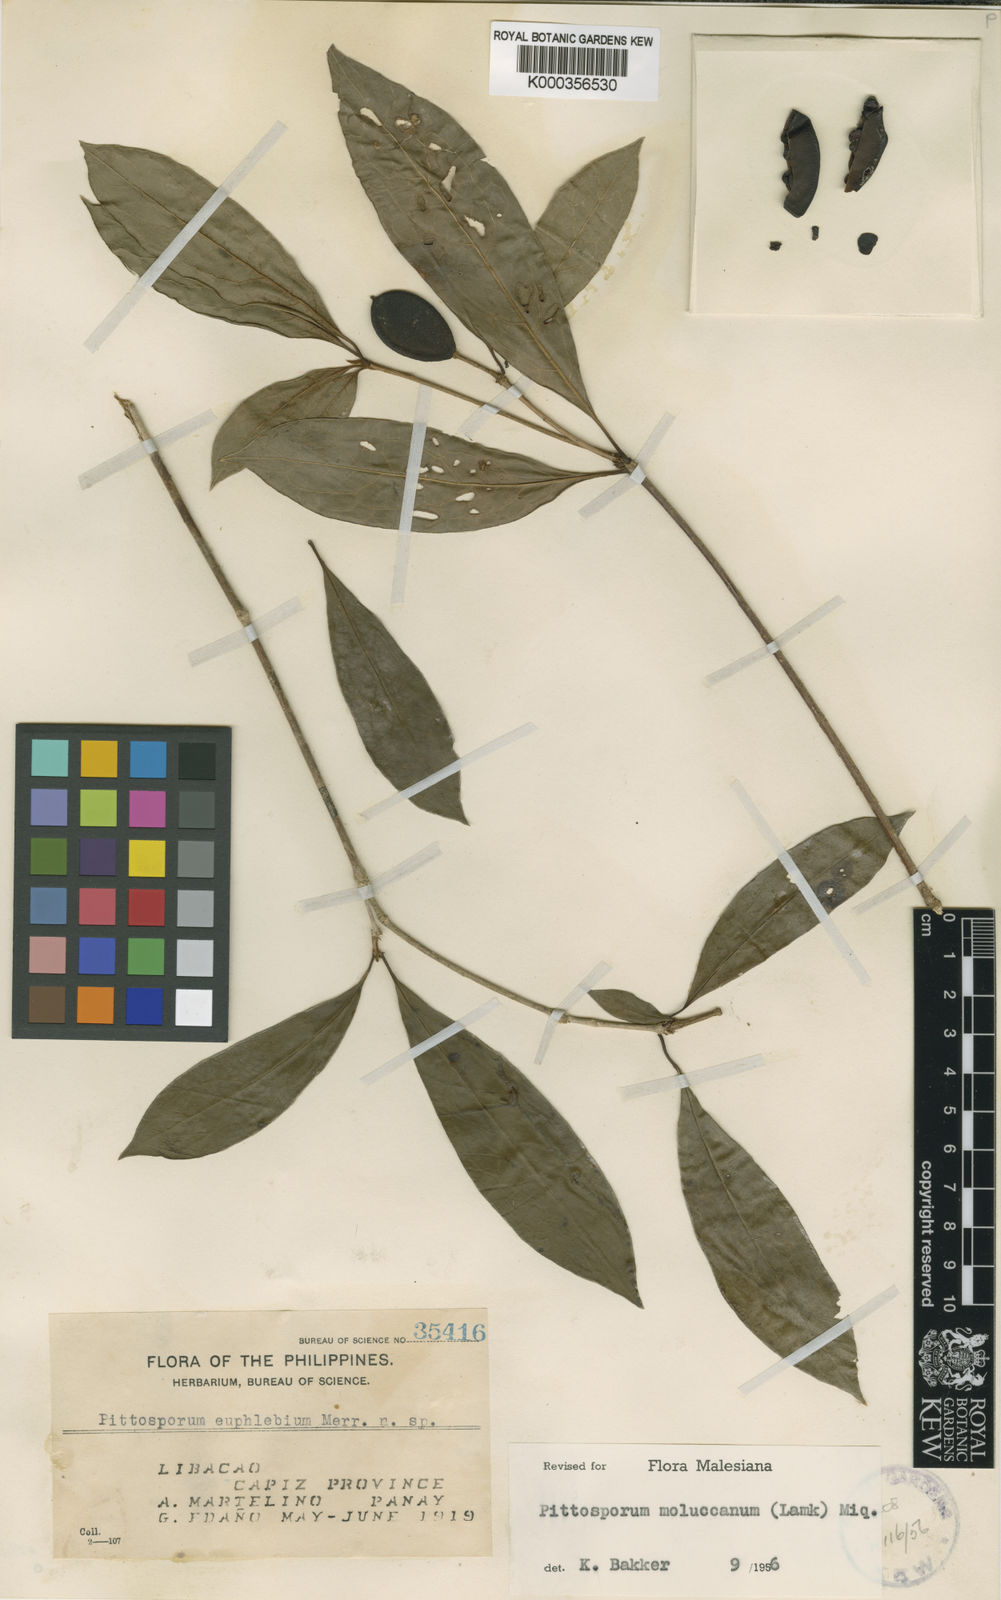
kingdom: Plantae
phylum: Tracheophyta
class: Magnoliopsida
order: Apiales
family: Pittosporaceae
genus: Pittosporum
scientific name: Pittosporum moluccanum
